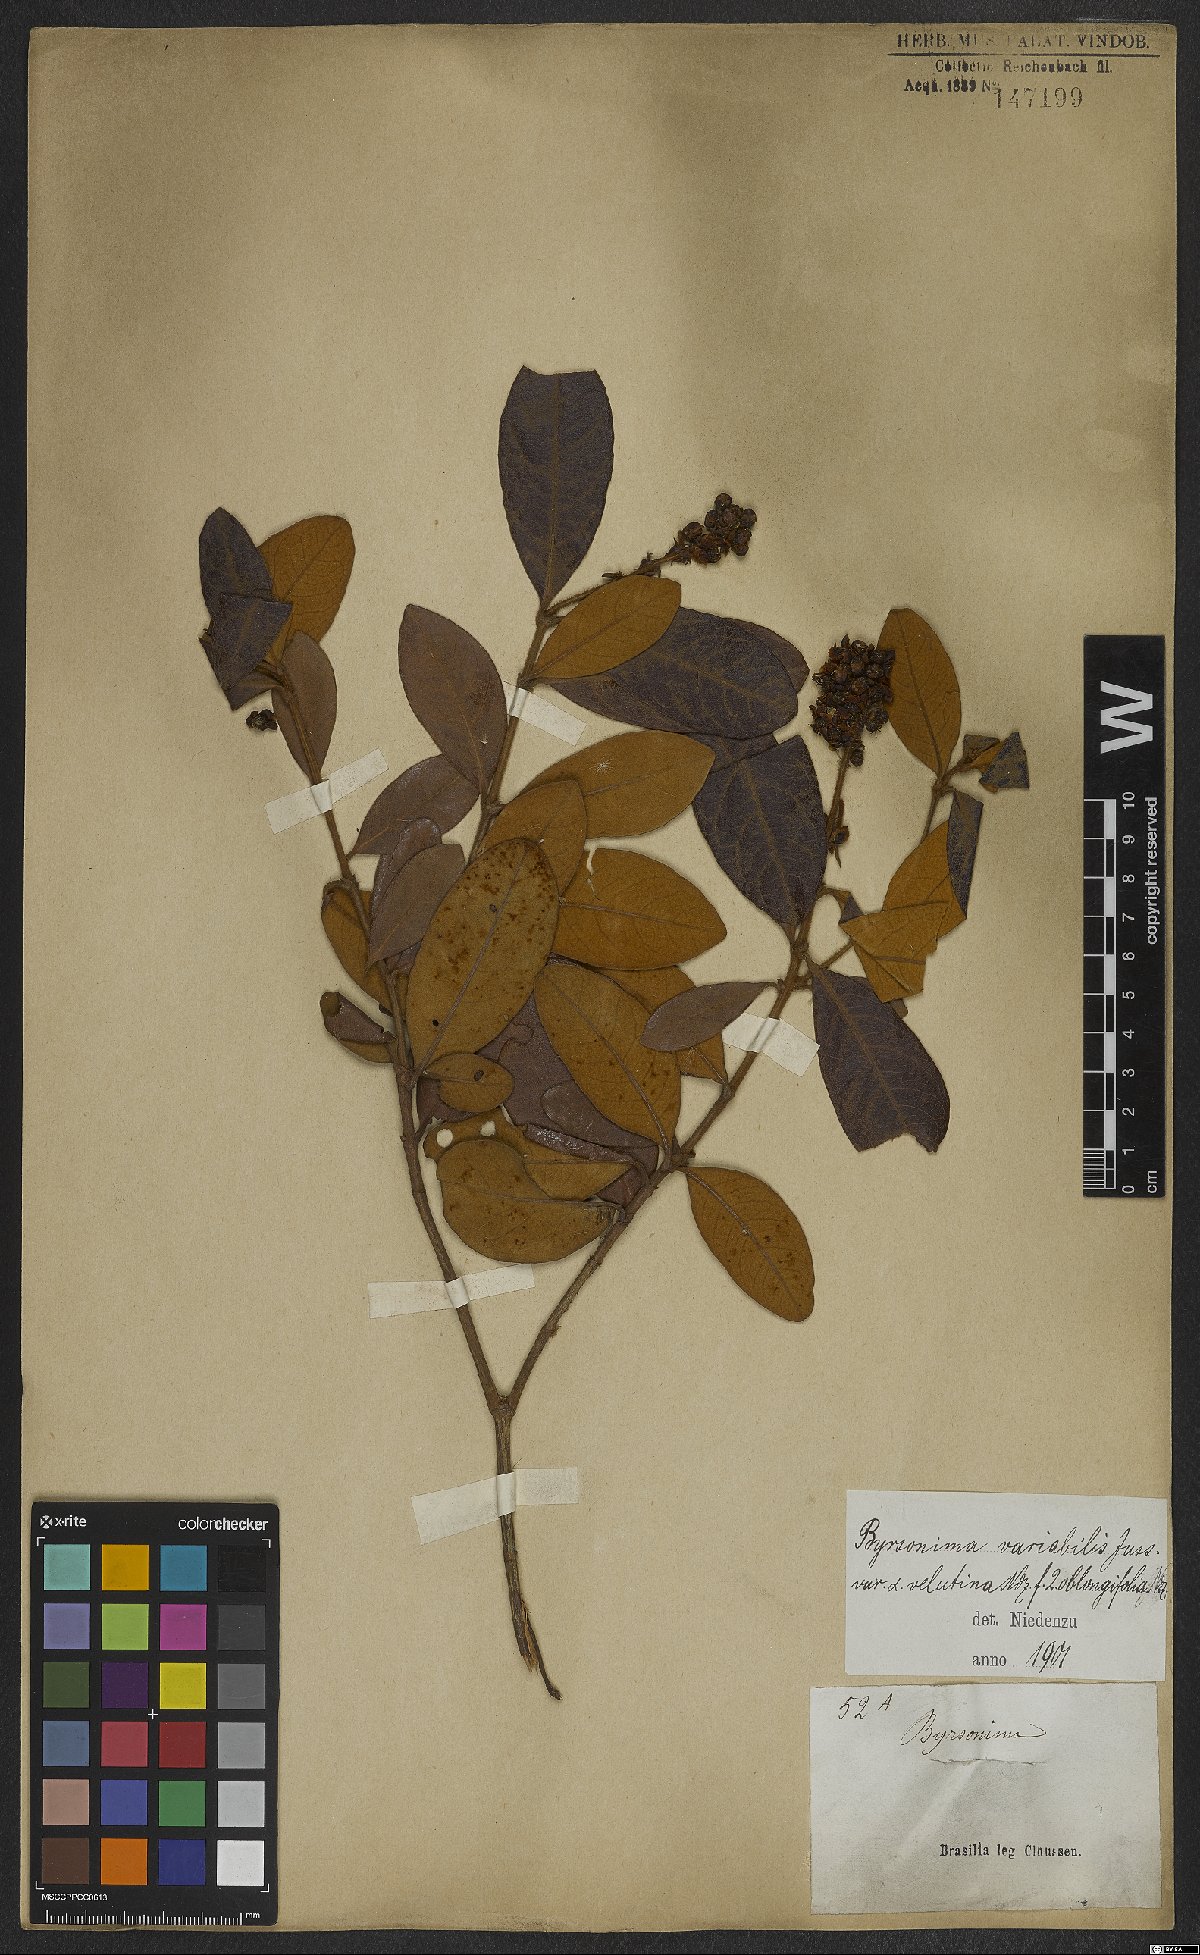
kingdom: Plantae
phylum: Tracheophyta
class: Magnoliopsida
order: Malpighiales
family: Malpighiaceae
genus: Byrsonima
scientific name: Byrsonima variabilis
